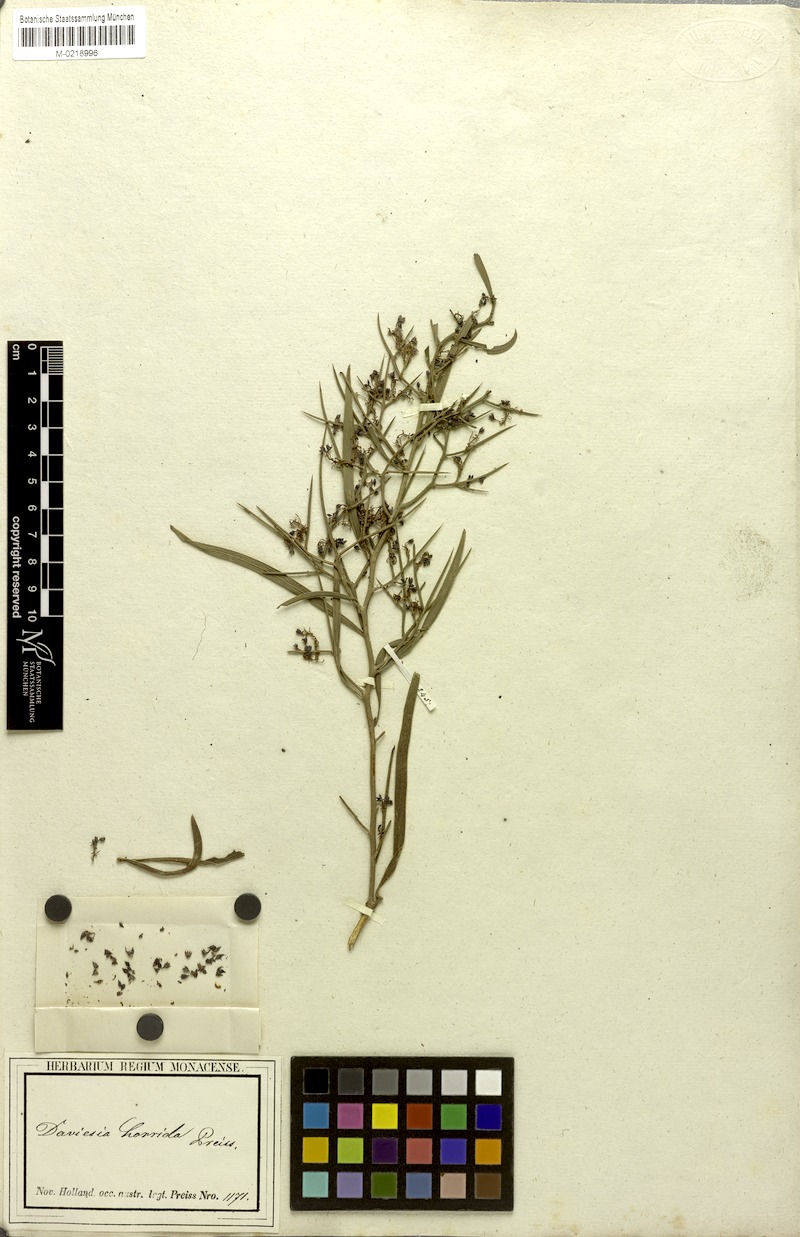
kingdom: Plantae
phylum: Tracheophyta
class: Magnoliopsida
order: Fabales
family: Fabaceae
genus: Daviesia
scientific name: Daviesia horrida
